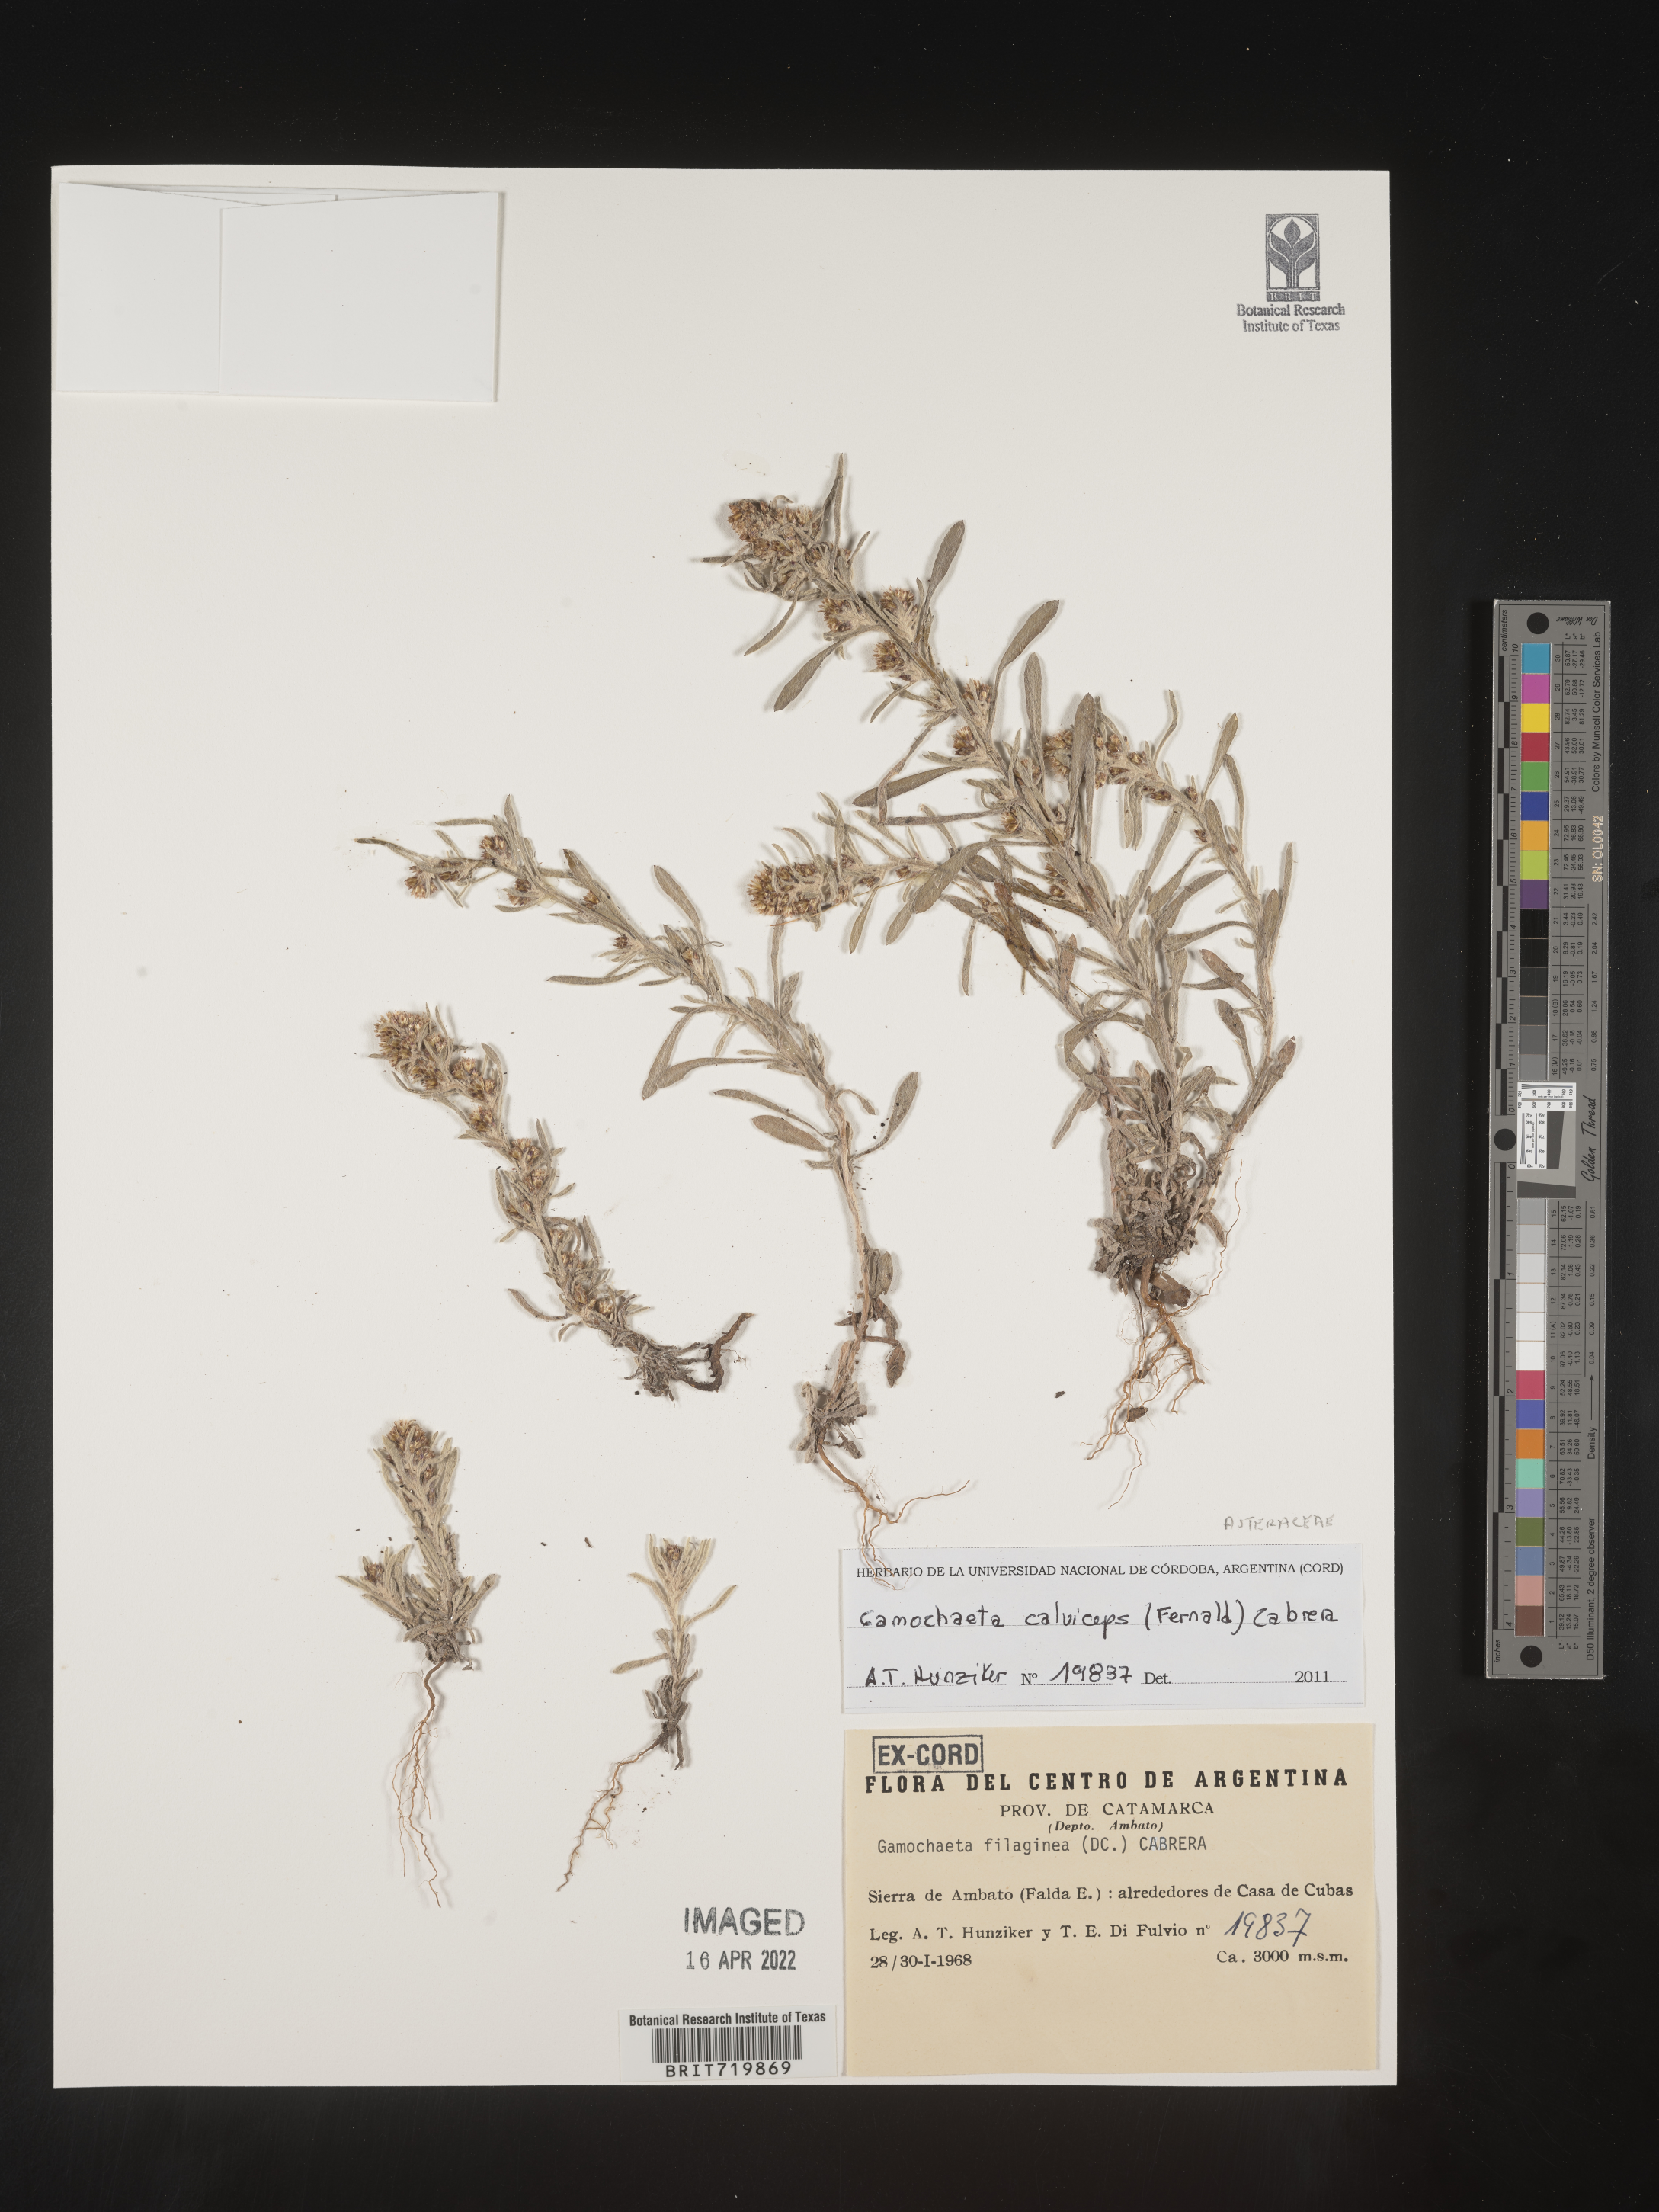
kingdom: Plantae
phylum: Tracheophyta
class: Magnoliopsida
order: Asterales
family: Asteraceae
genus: Gamochaeta
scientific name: Gamochaeta
